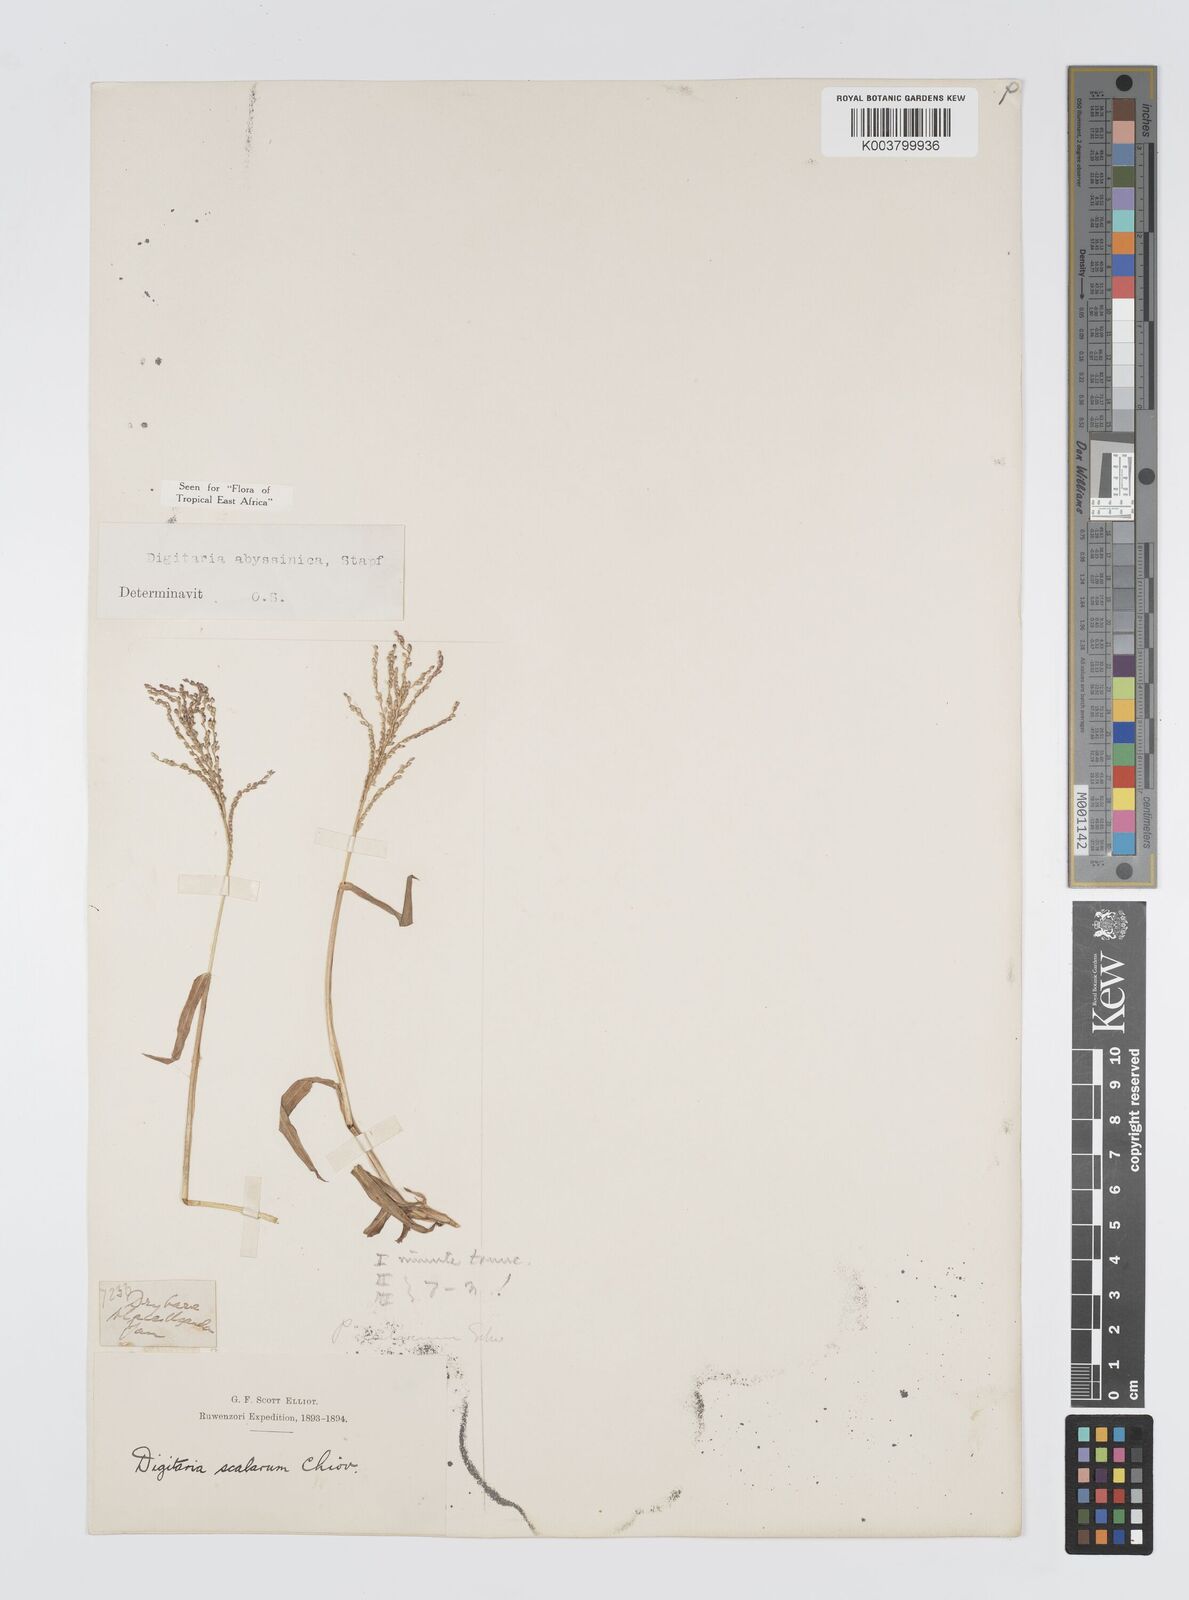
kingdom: Plantae
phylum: Tracheophyta
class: Liliopsida
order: Poales
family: Poaceae
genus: Digitaria
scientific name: Digitaria abyssinica
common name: African couchgrass
